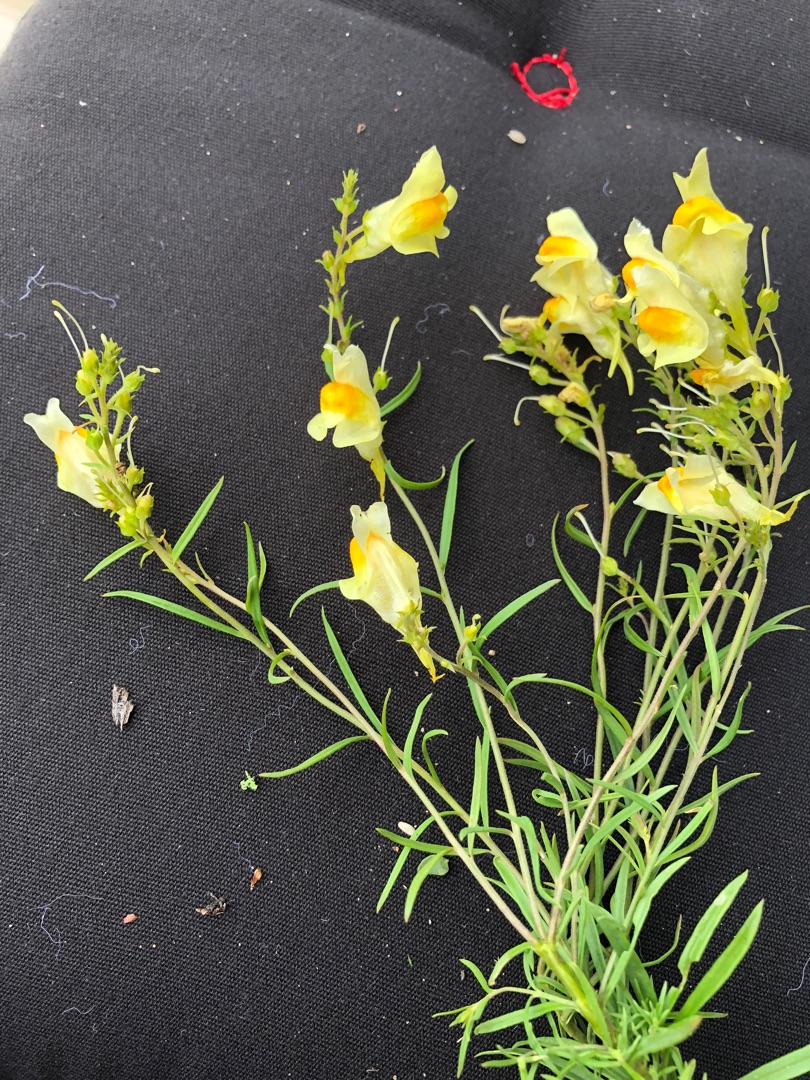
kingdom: Plantae
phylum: Tracheophyta
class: Magnoliopsida
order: Lamiales
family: Plantaginaceae
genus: Linaria
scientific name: Linaria vulgaris
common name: Almindelig torskemund
